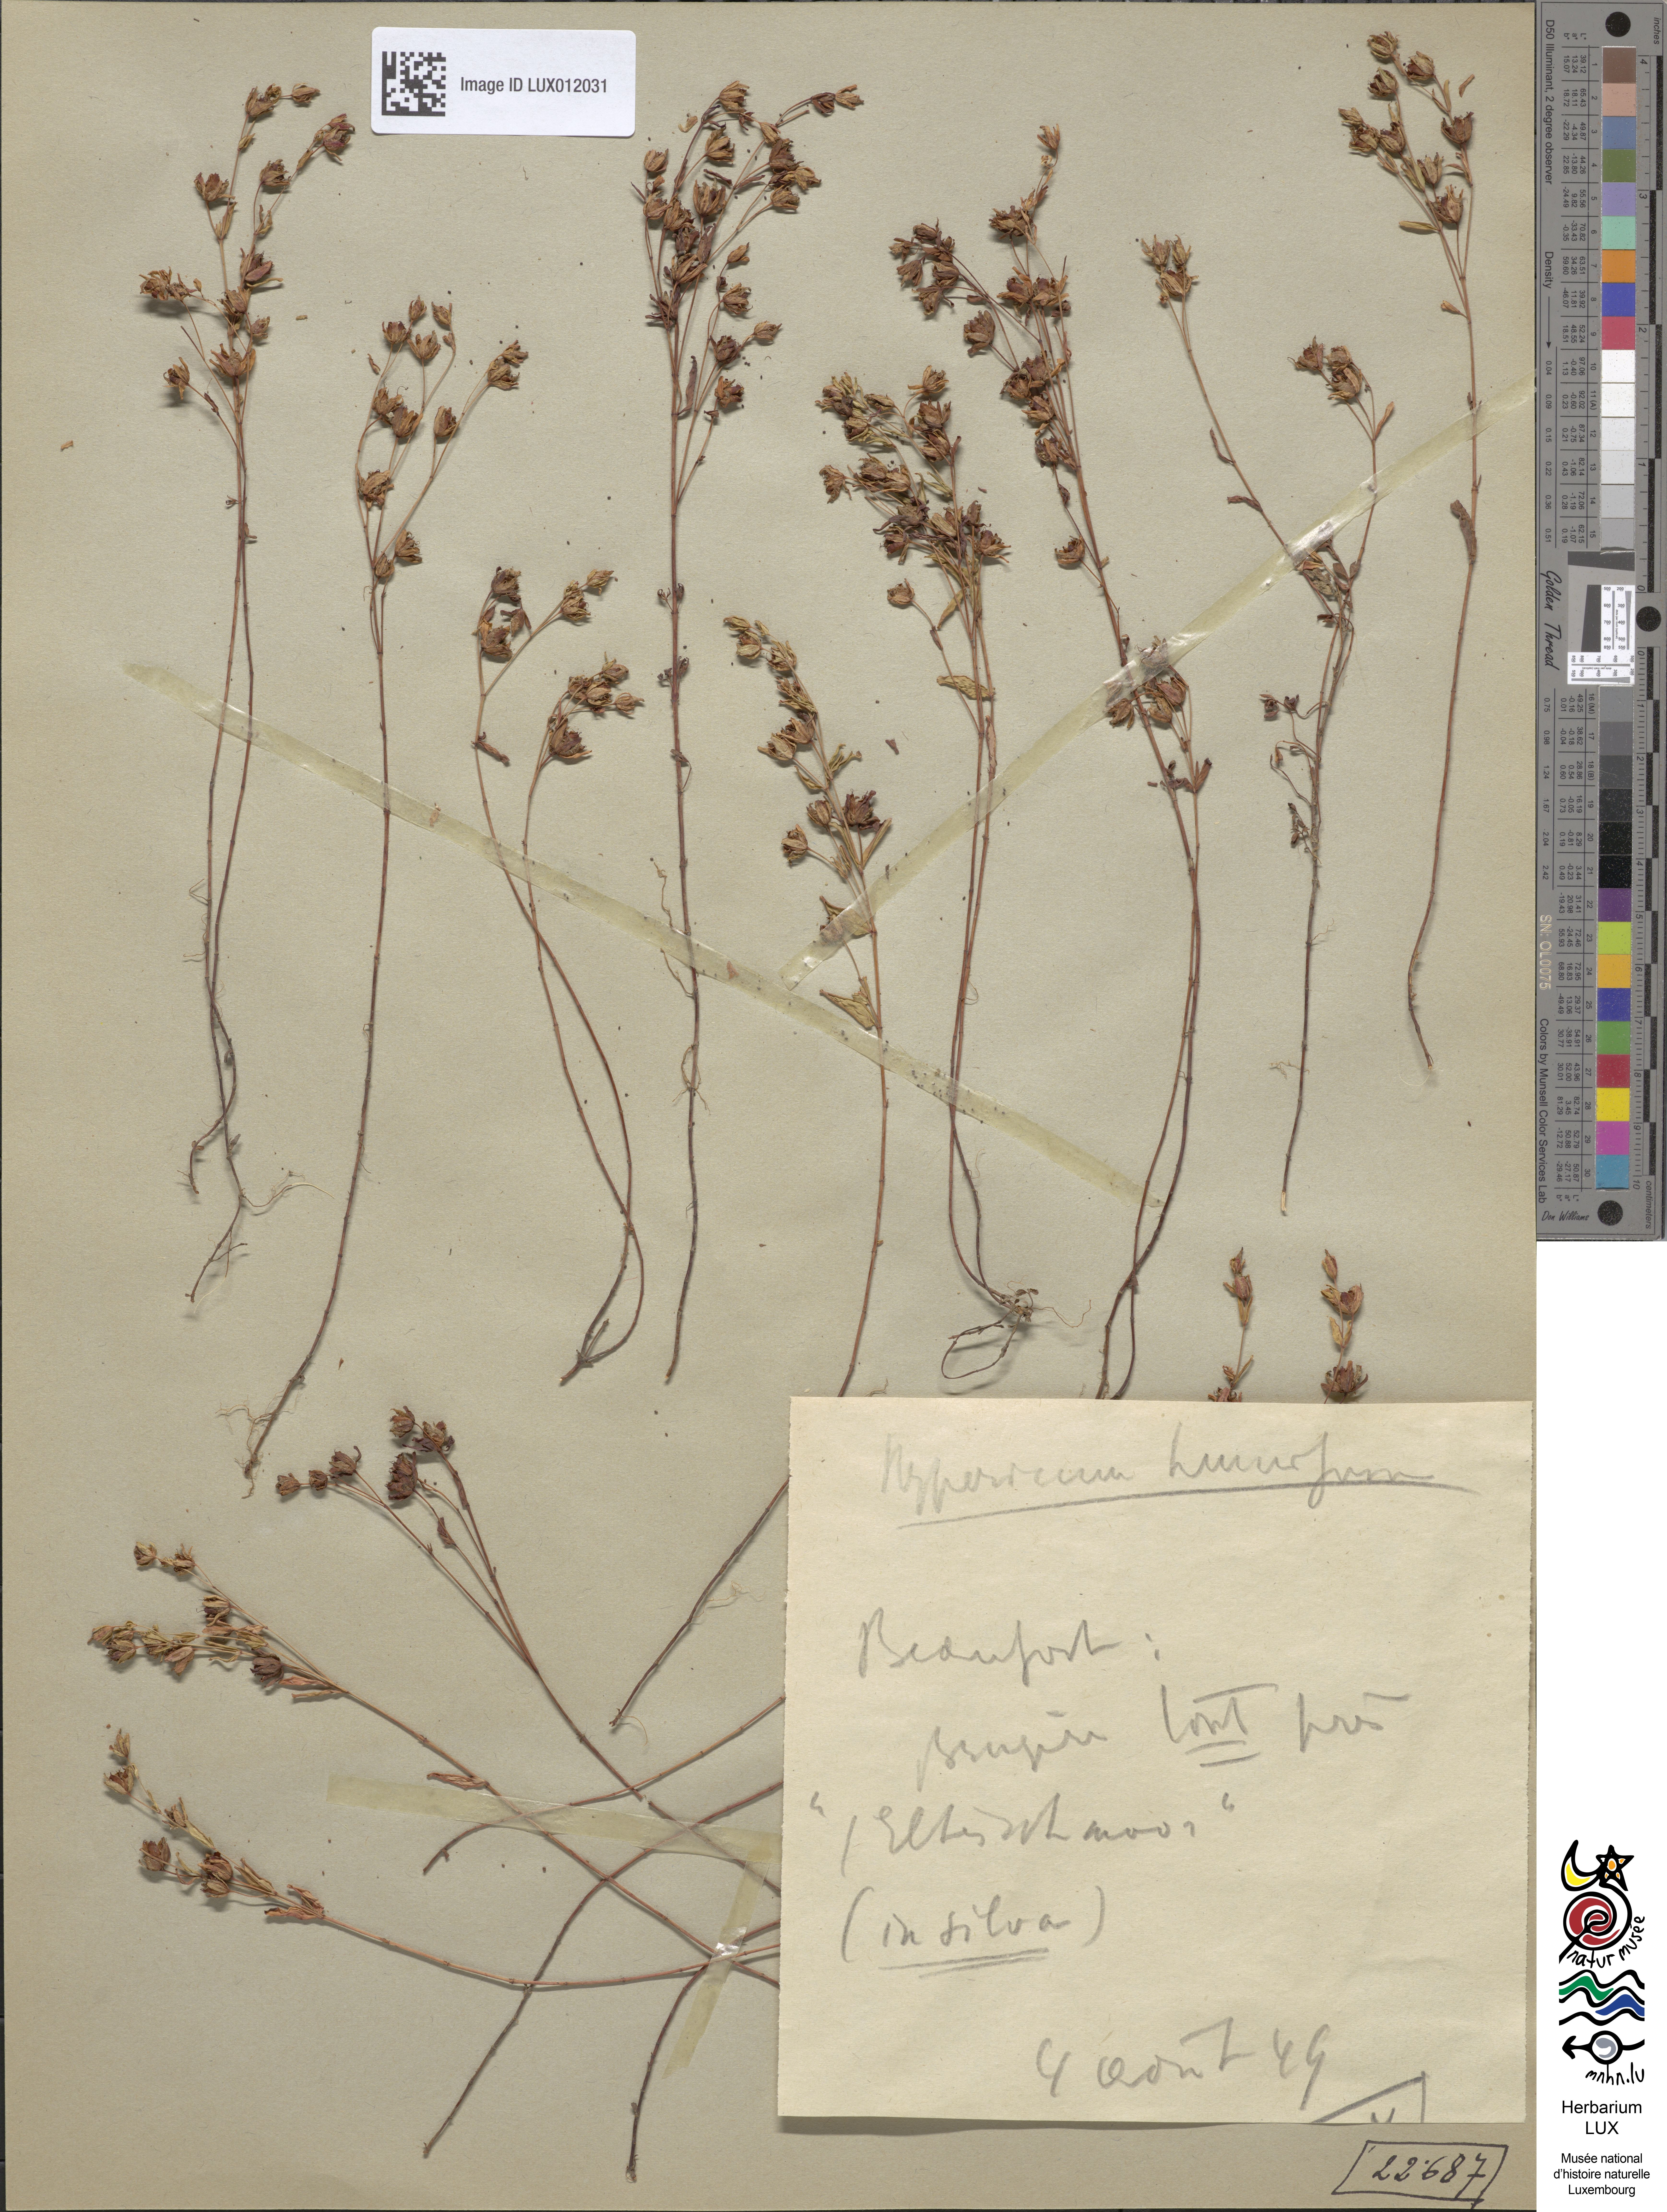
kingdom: Plantae
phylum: Tracheophyta
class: Magnoliopsida
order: Malpighiales
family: Hypericaceae
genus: Hypericum
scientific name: Hypericum humifusum
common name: Trailing st. john's-wort
